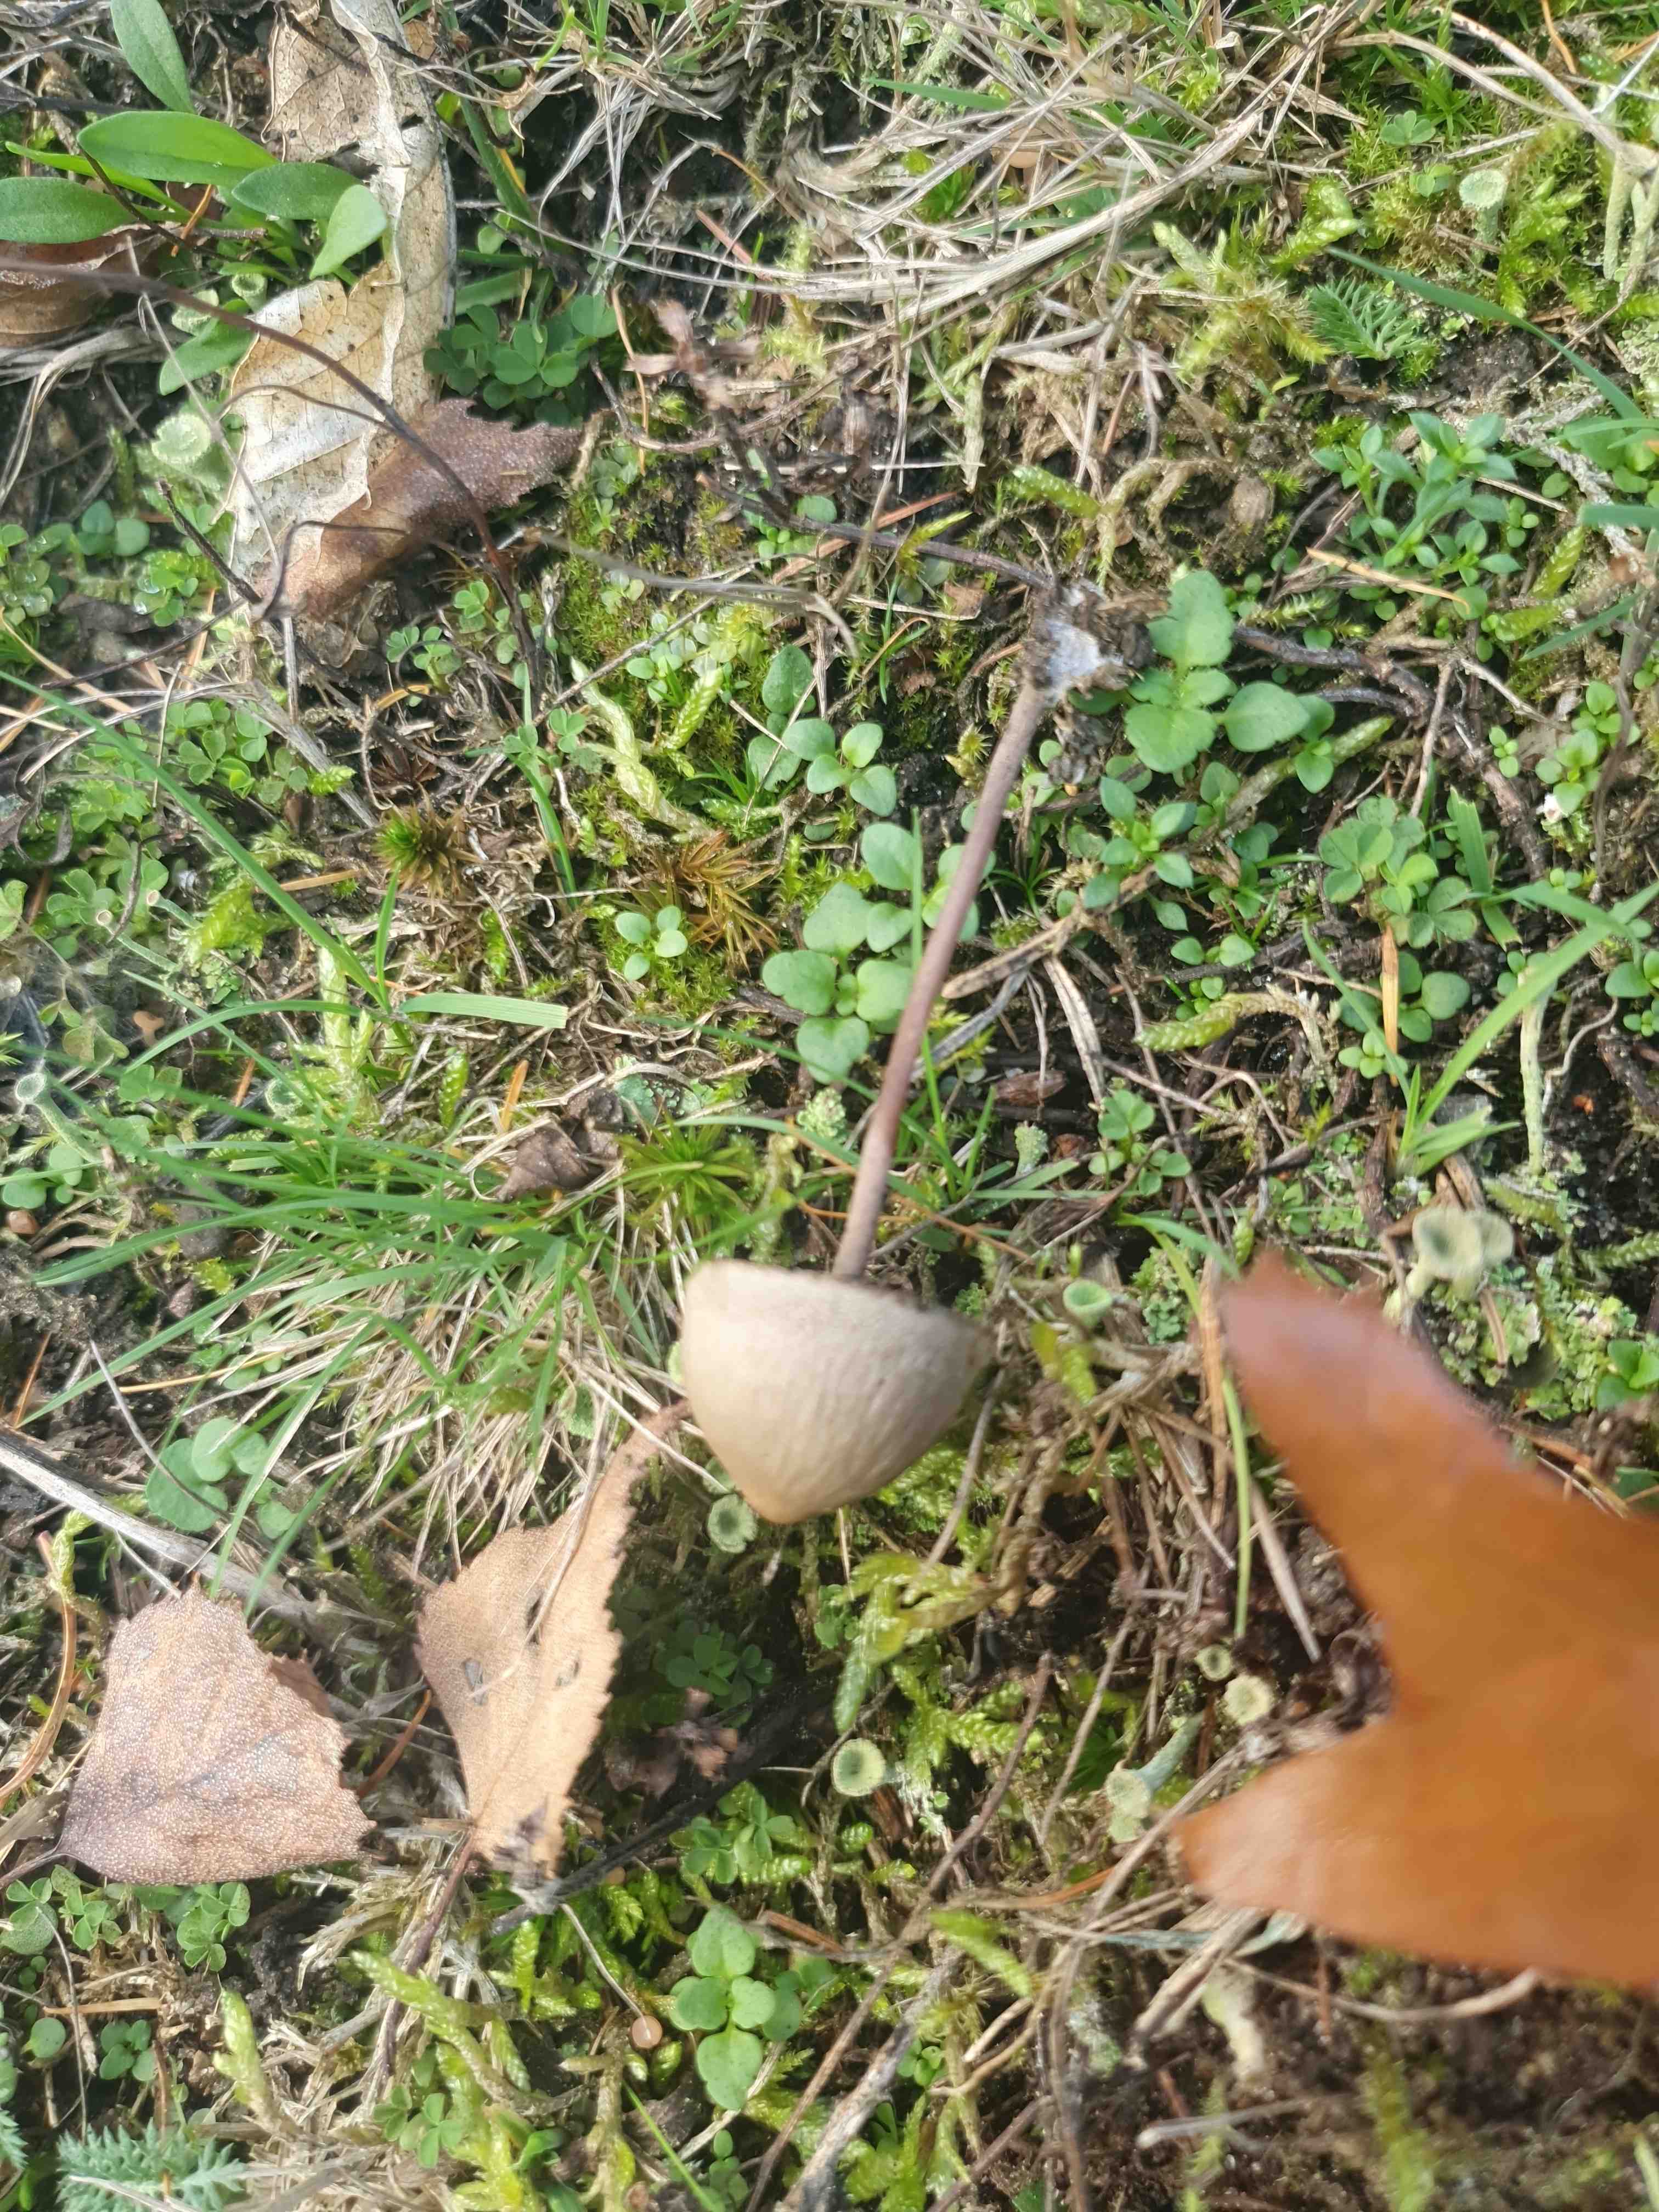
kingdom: Fungi
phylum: Basidiomycota
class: Agaricomycetes
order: Agaricales
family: Bolbitiaceae
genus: Panaeolus
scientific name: Panaeolus papilionaceus
